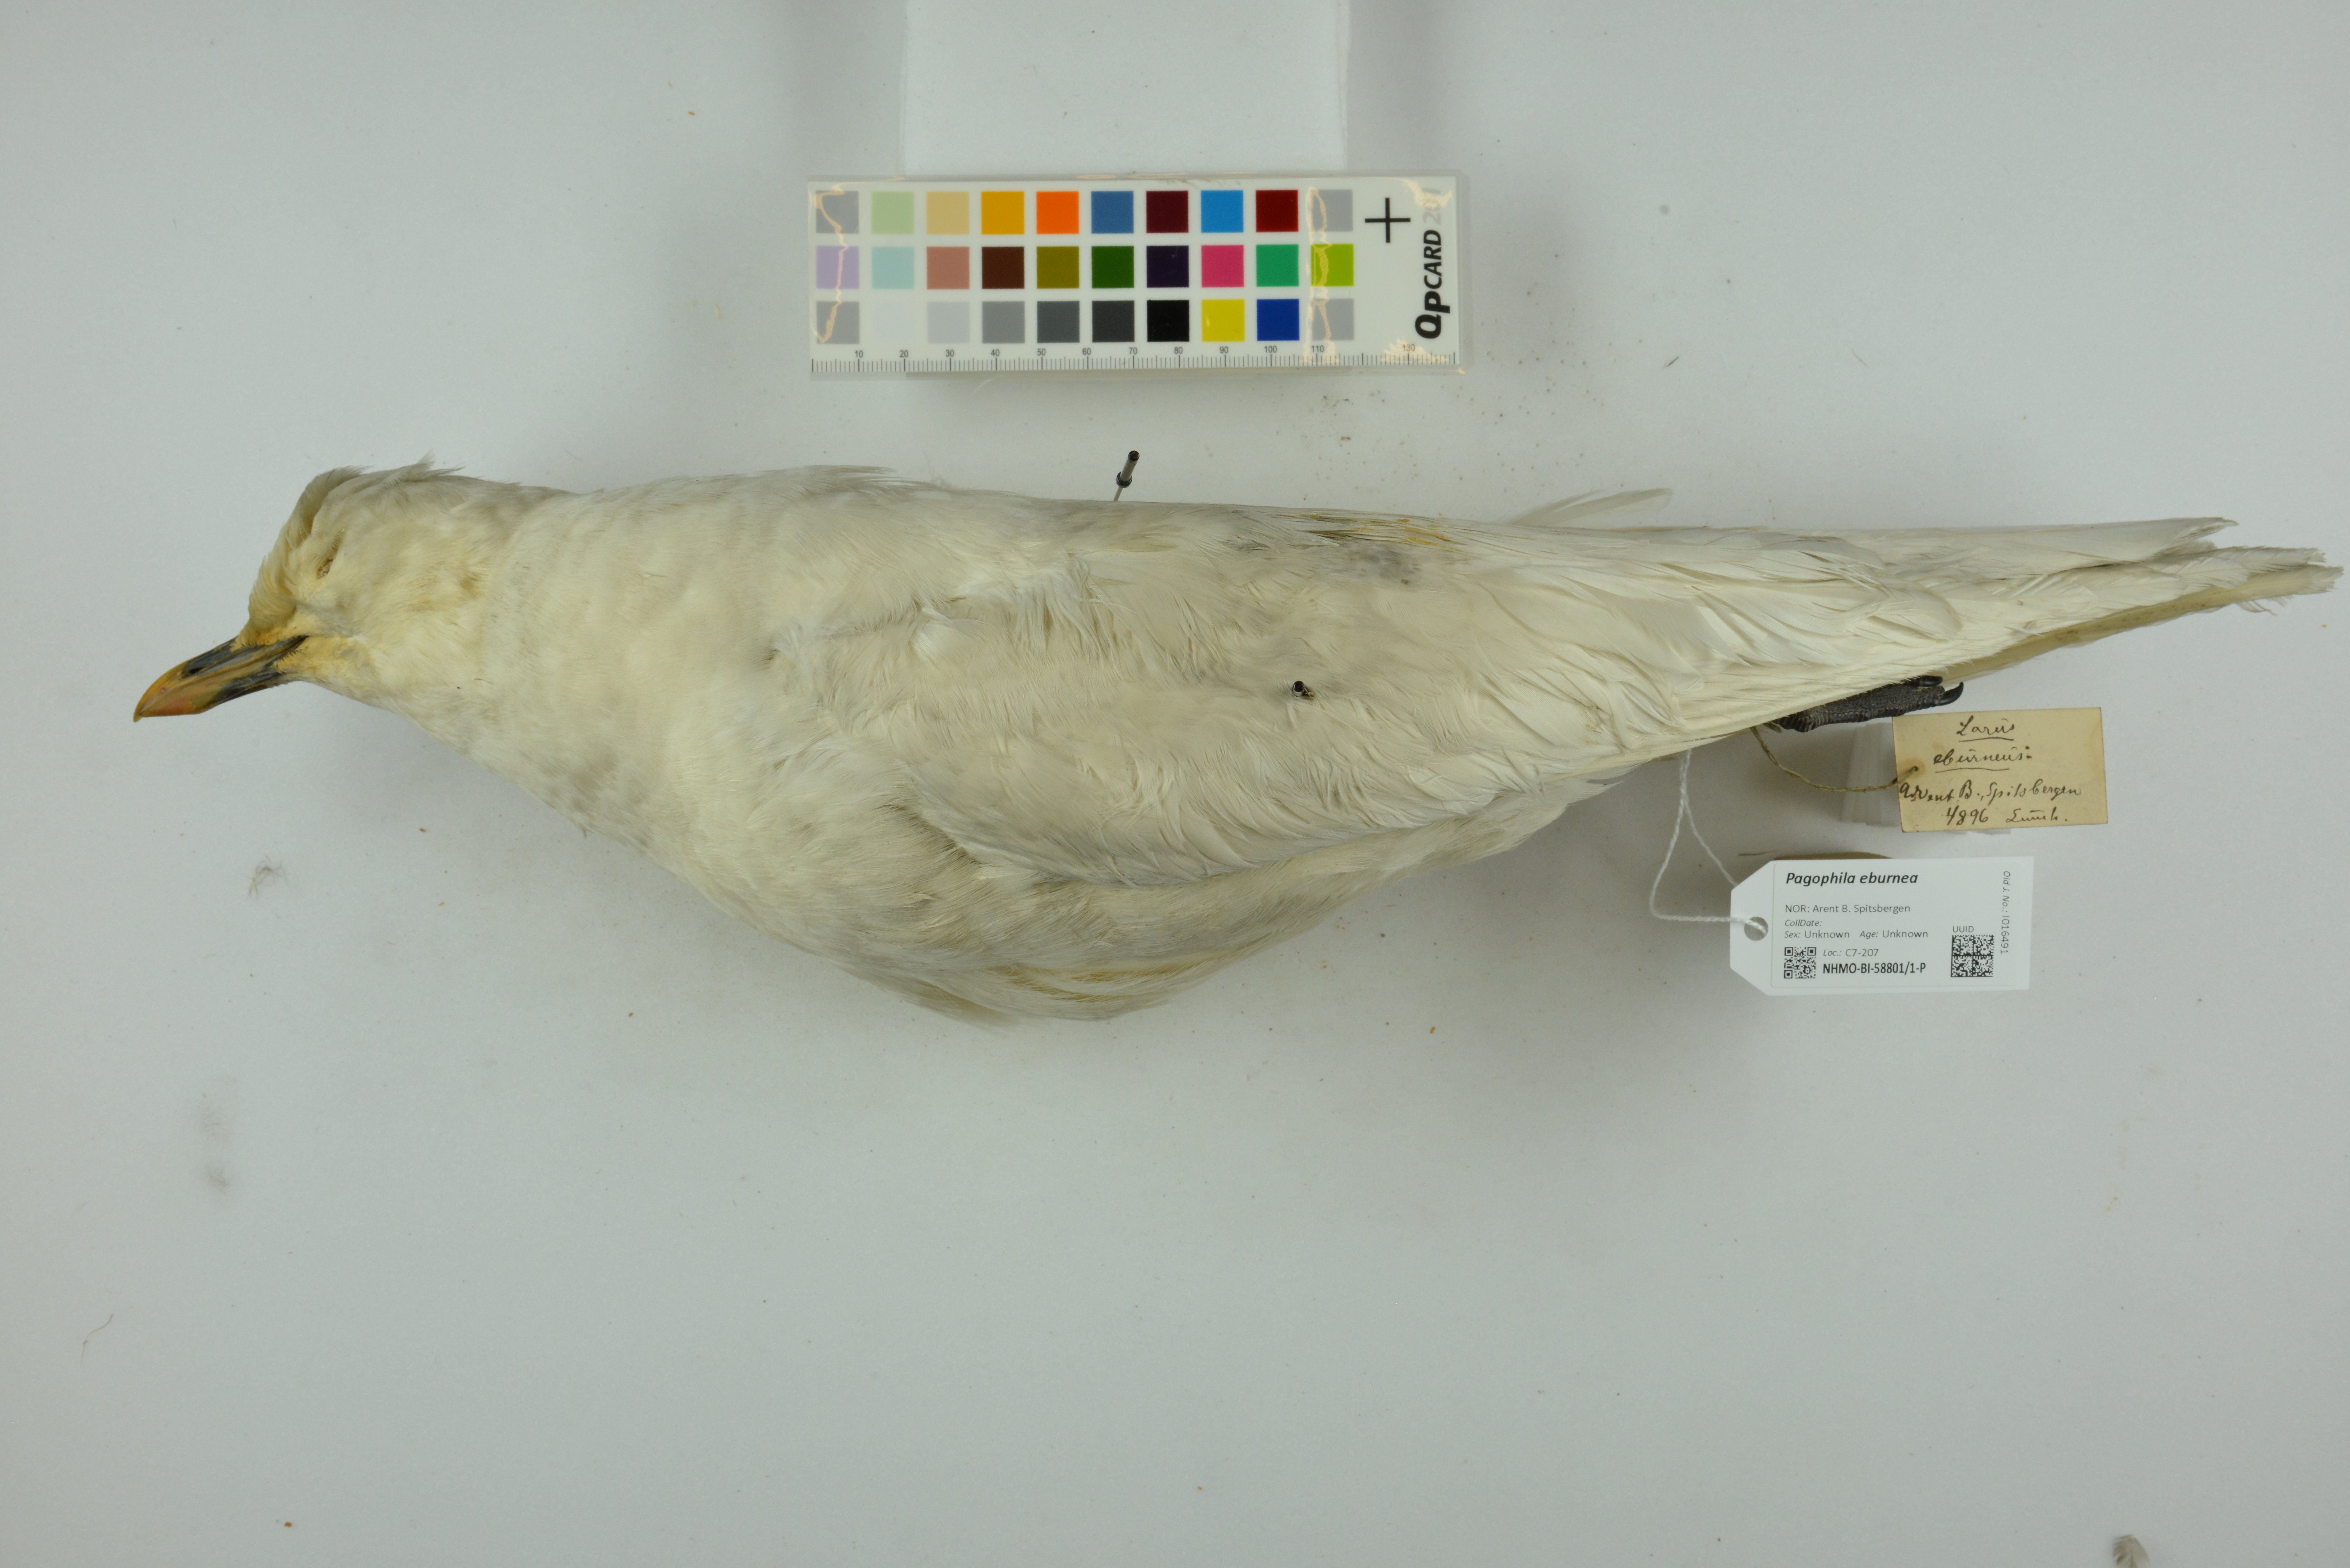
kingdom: Animalia
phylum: Chordata
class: Aves
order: Charadriiformes
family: Laridae
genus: Pagophila
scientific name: Pagophila eburnea
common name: Ivory gull
